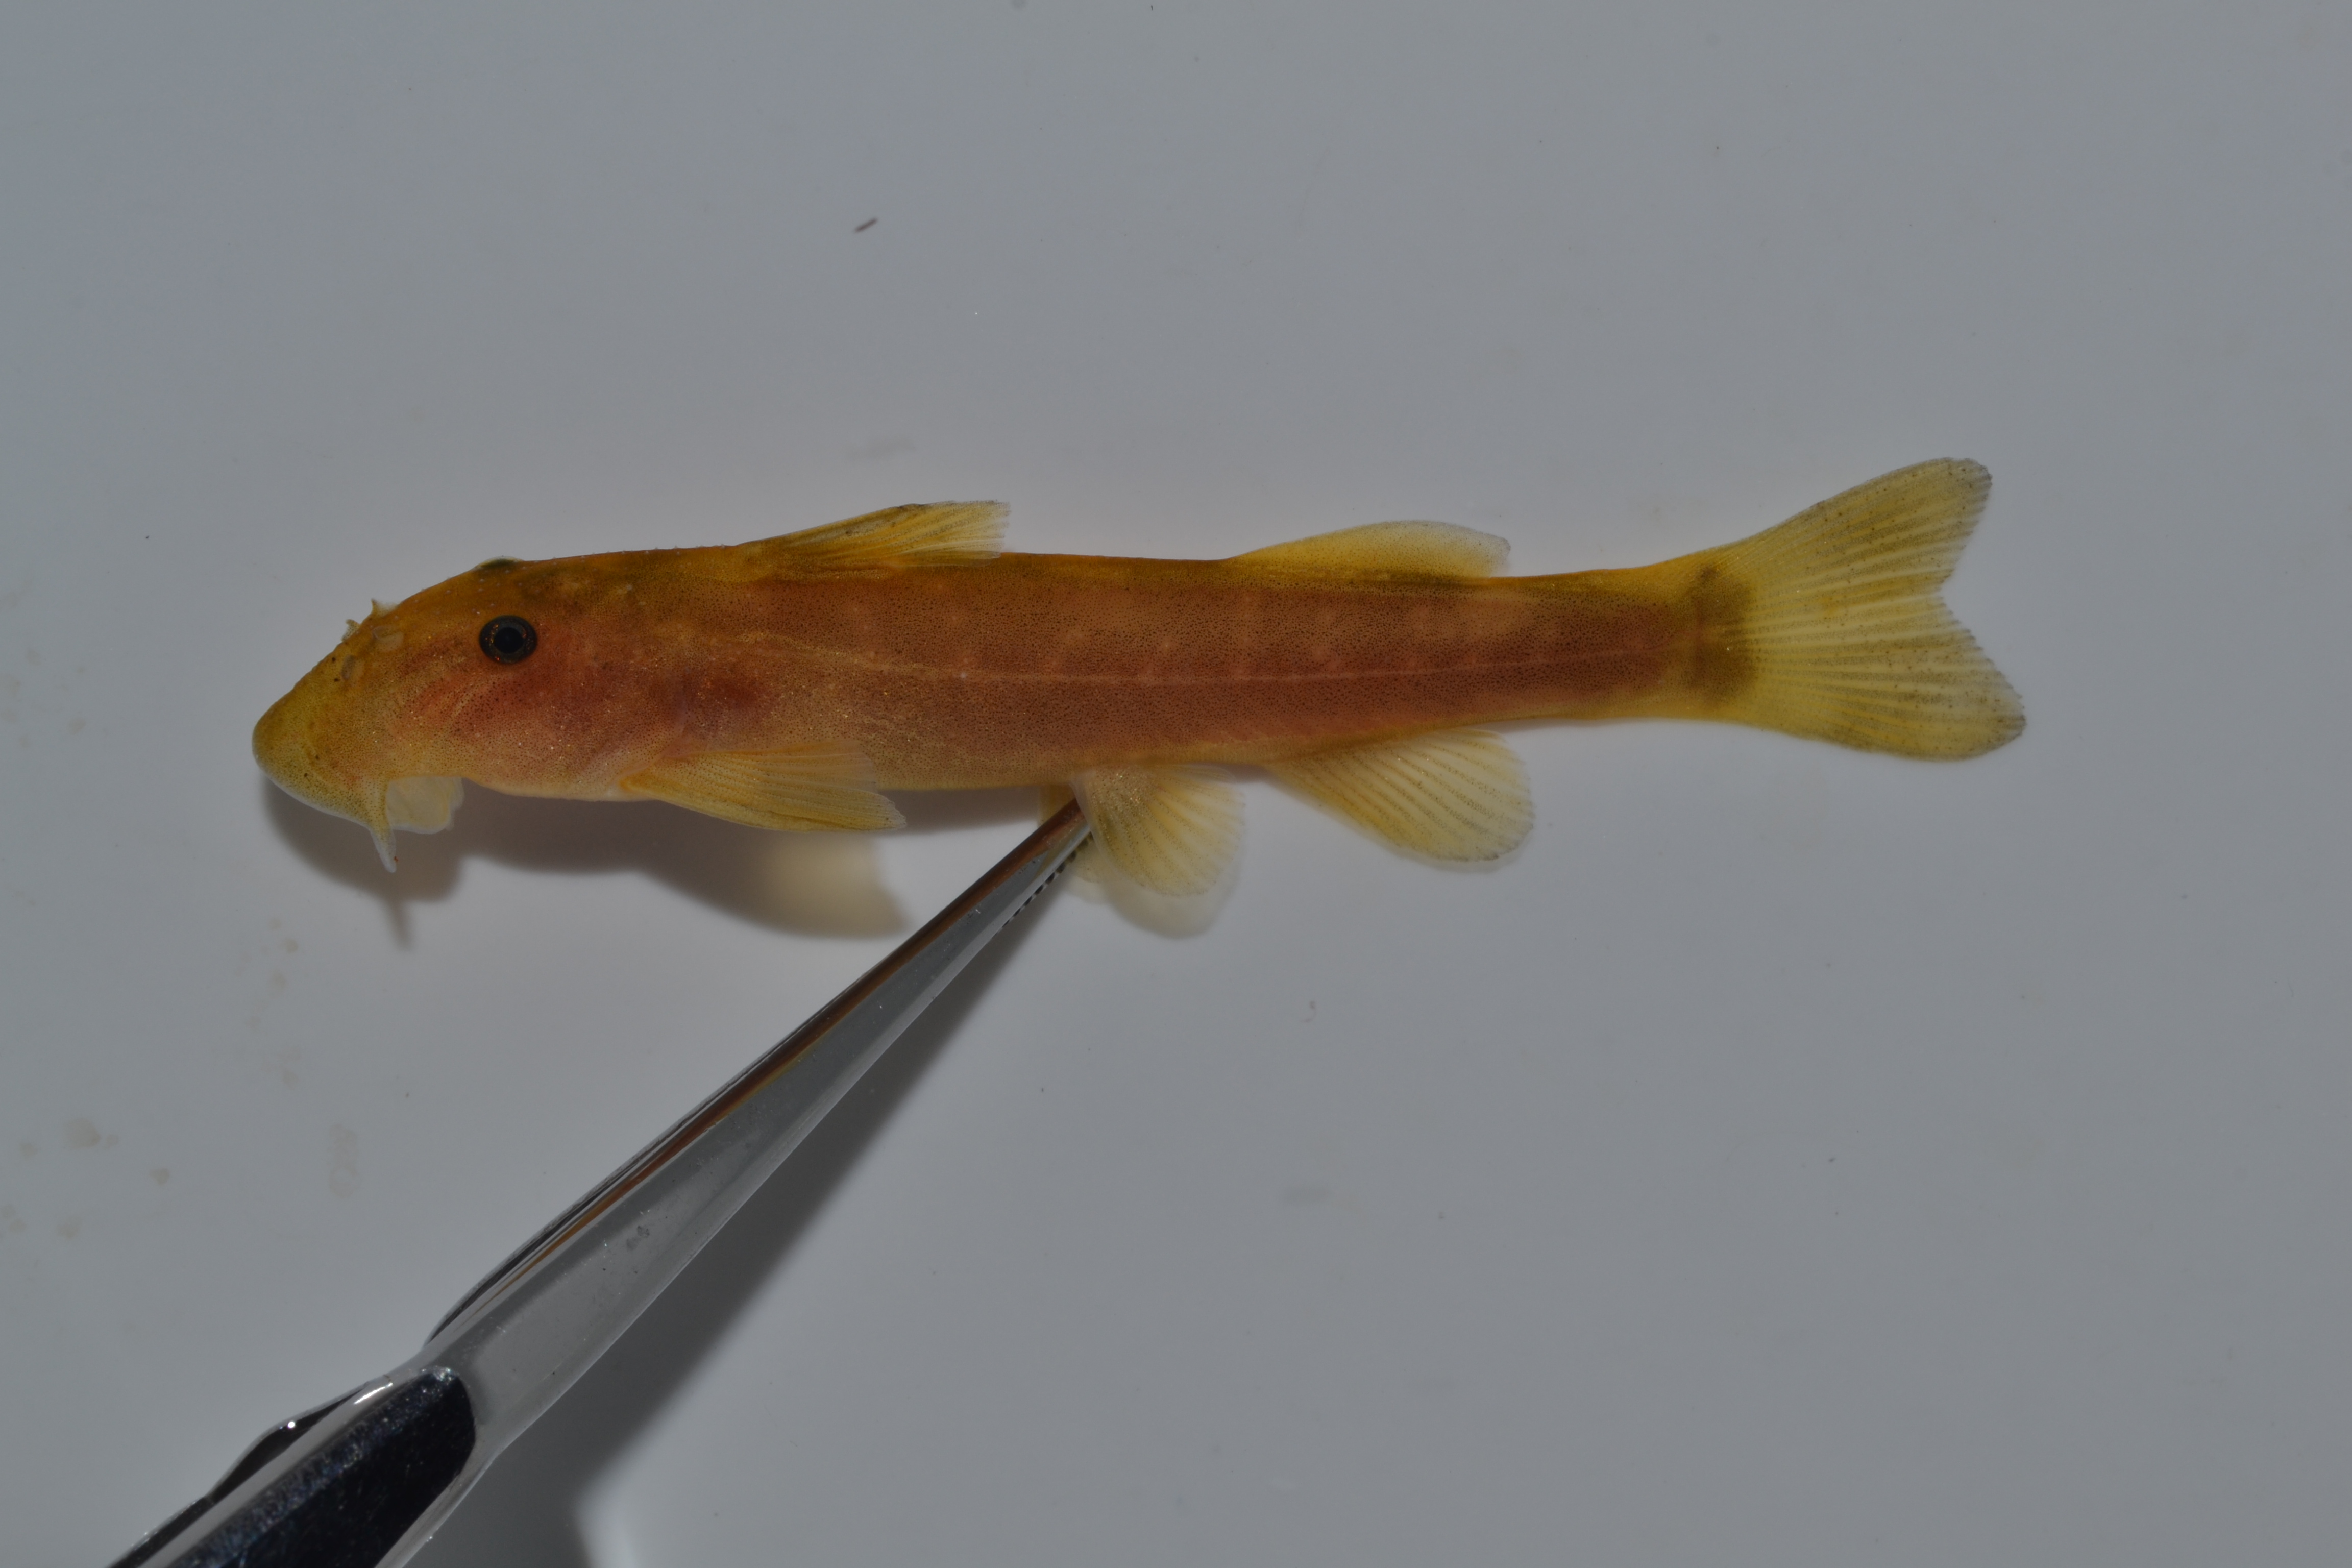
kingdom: Animalia
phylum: Chordata
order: Siluriformes
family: Mochokidae
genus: Chiloglanis
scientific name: Chiloglanis
